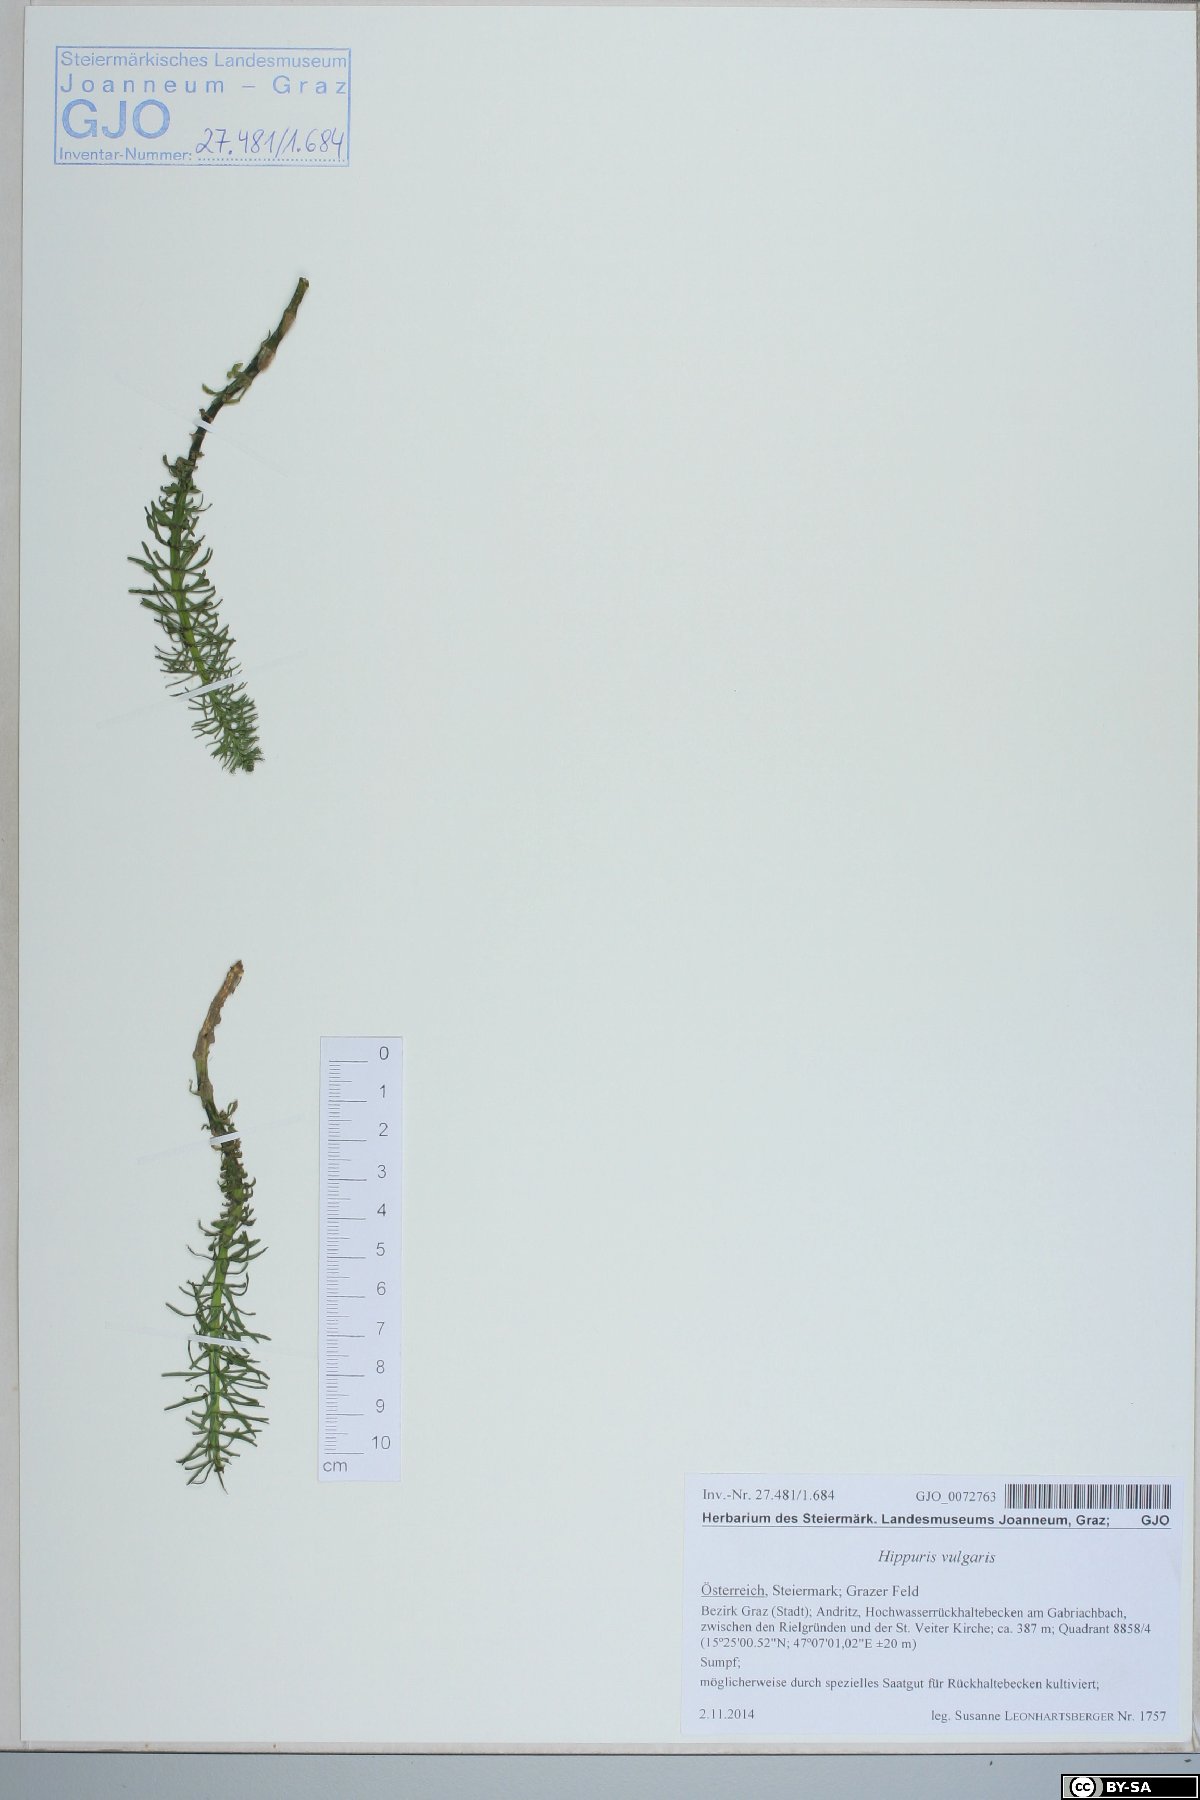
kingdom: Plantae
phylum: Tracheophyta
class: Magnoliopsida
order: Lamiales
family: Plantaginaceae
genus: Hippuris
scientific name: Hippuris vulgaris
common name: Mare's-tail
